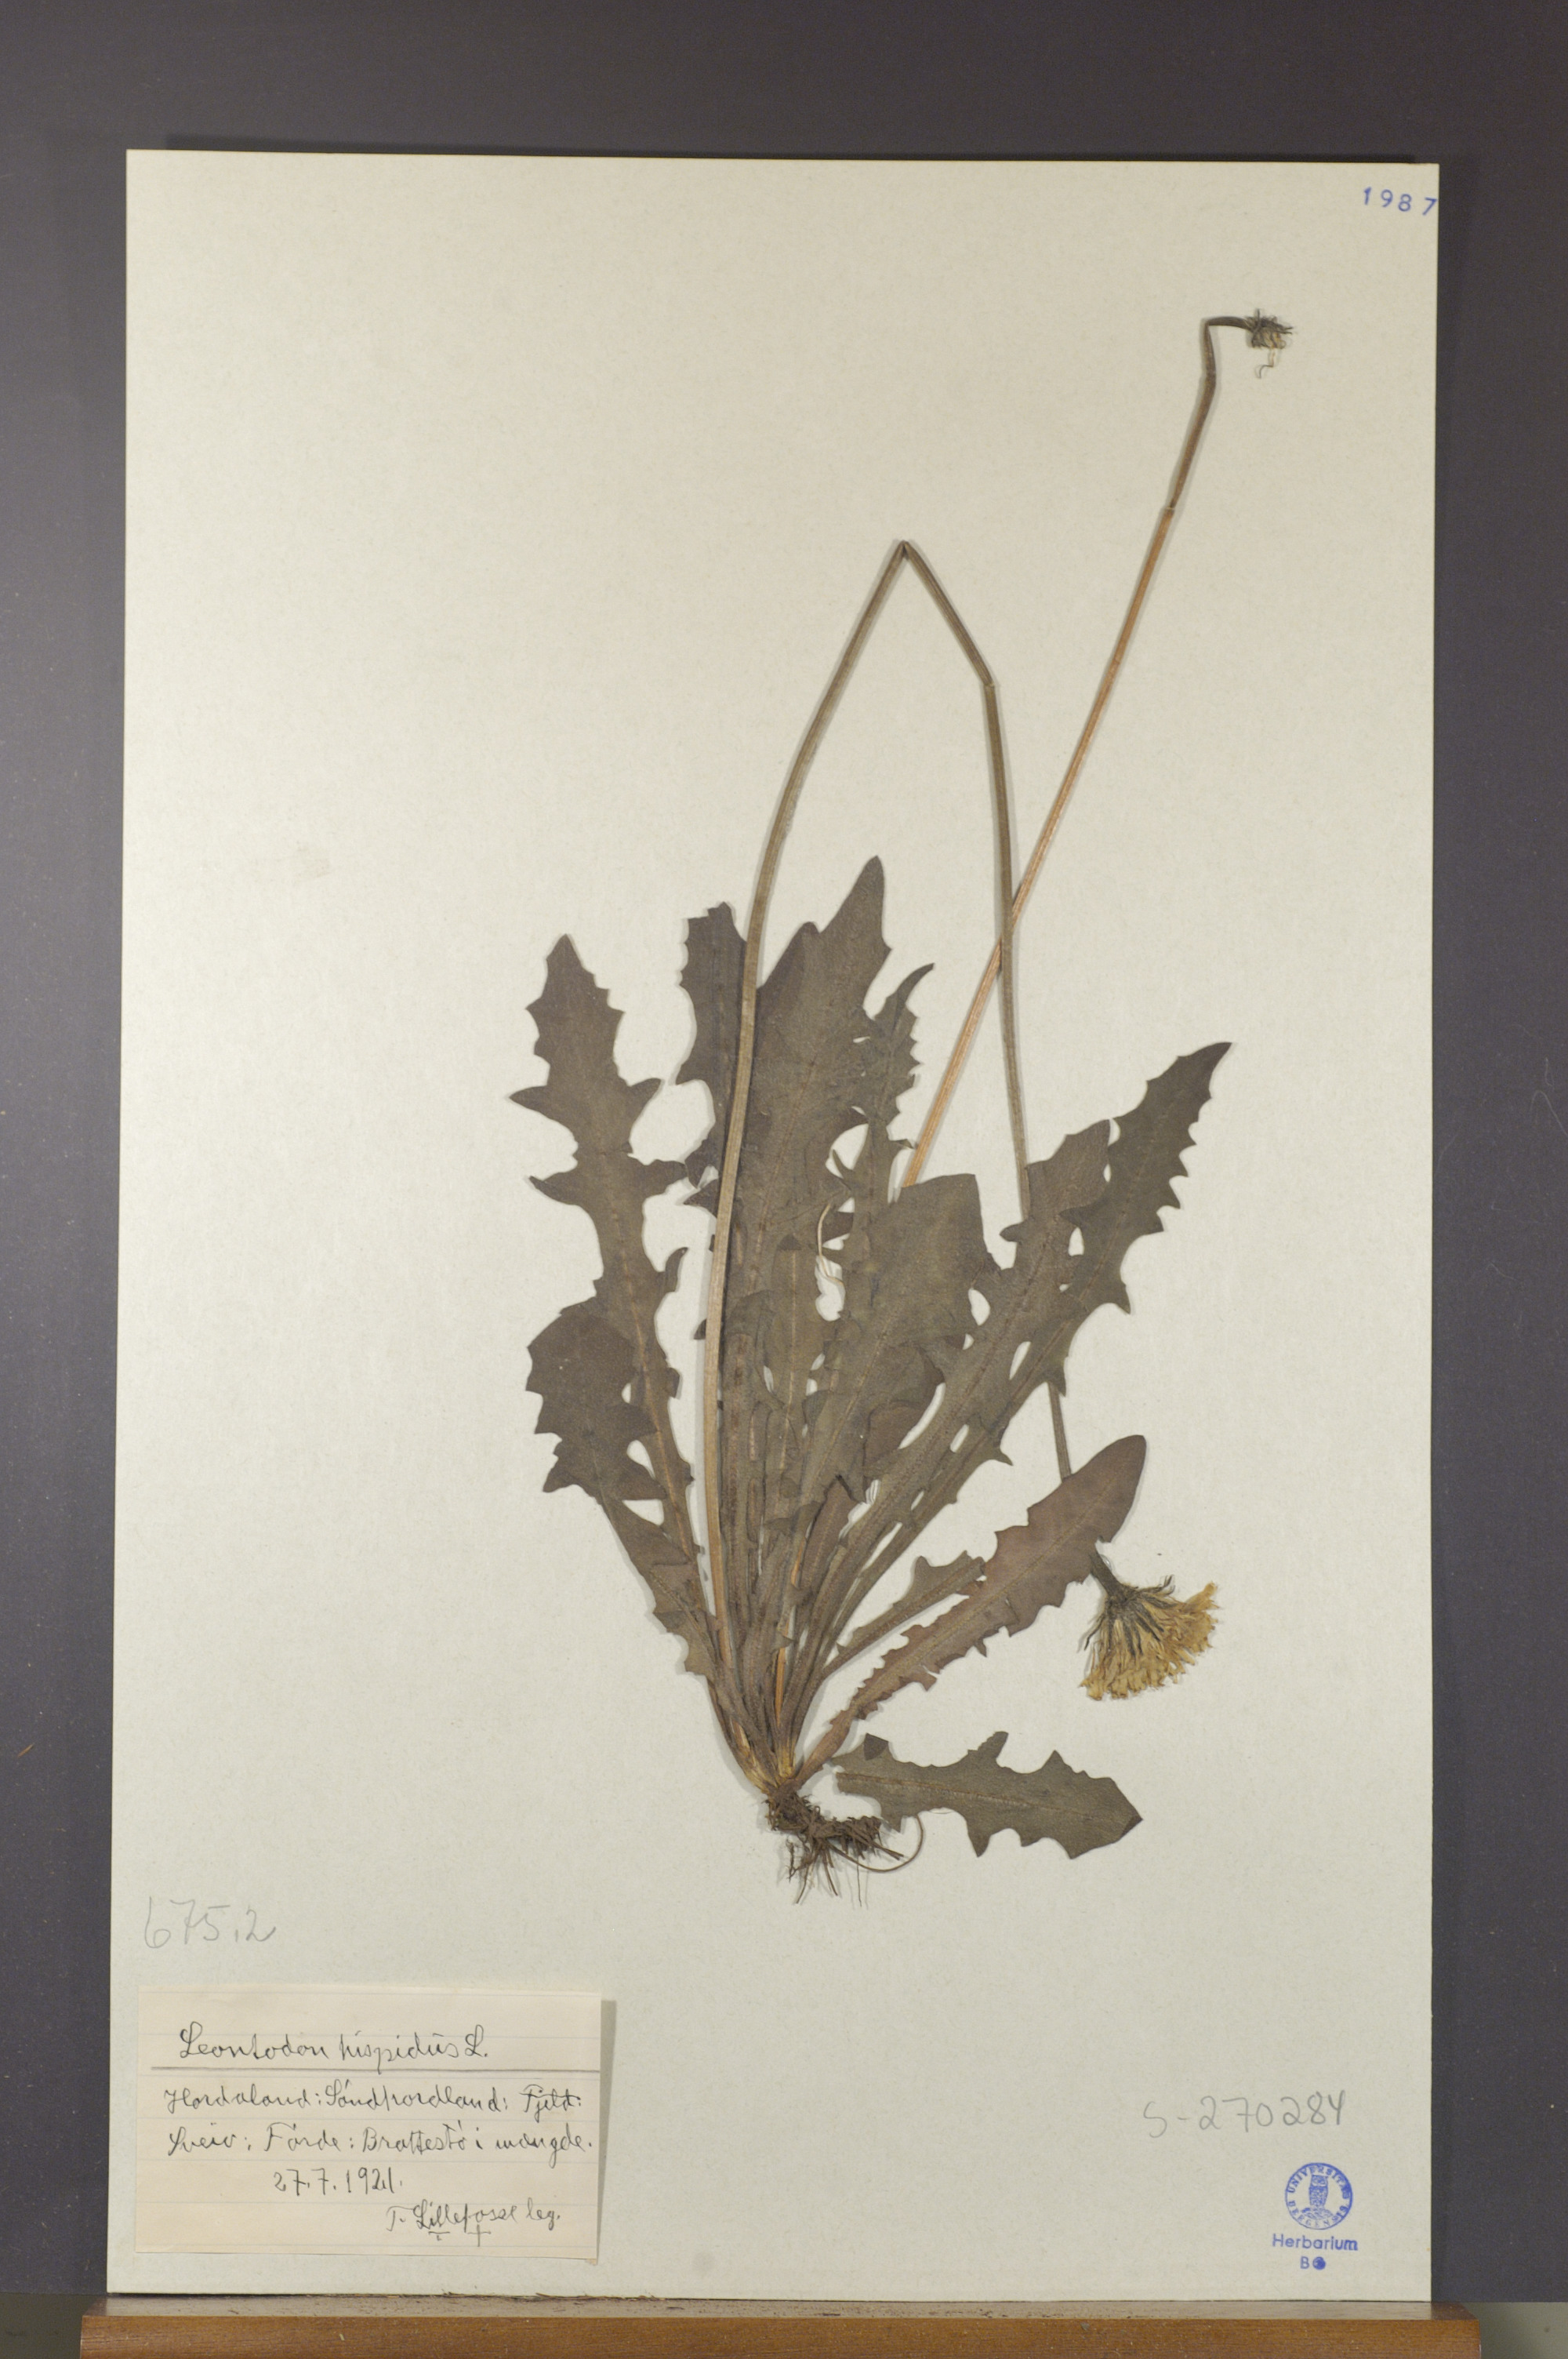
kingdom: Plantae
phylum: Tracheophyta
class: Magnoliopsida
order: Asterales
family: Asteraceae
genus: Leontodon
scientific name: Leontodon hispidus
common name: Rough hawkbit
